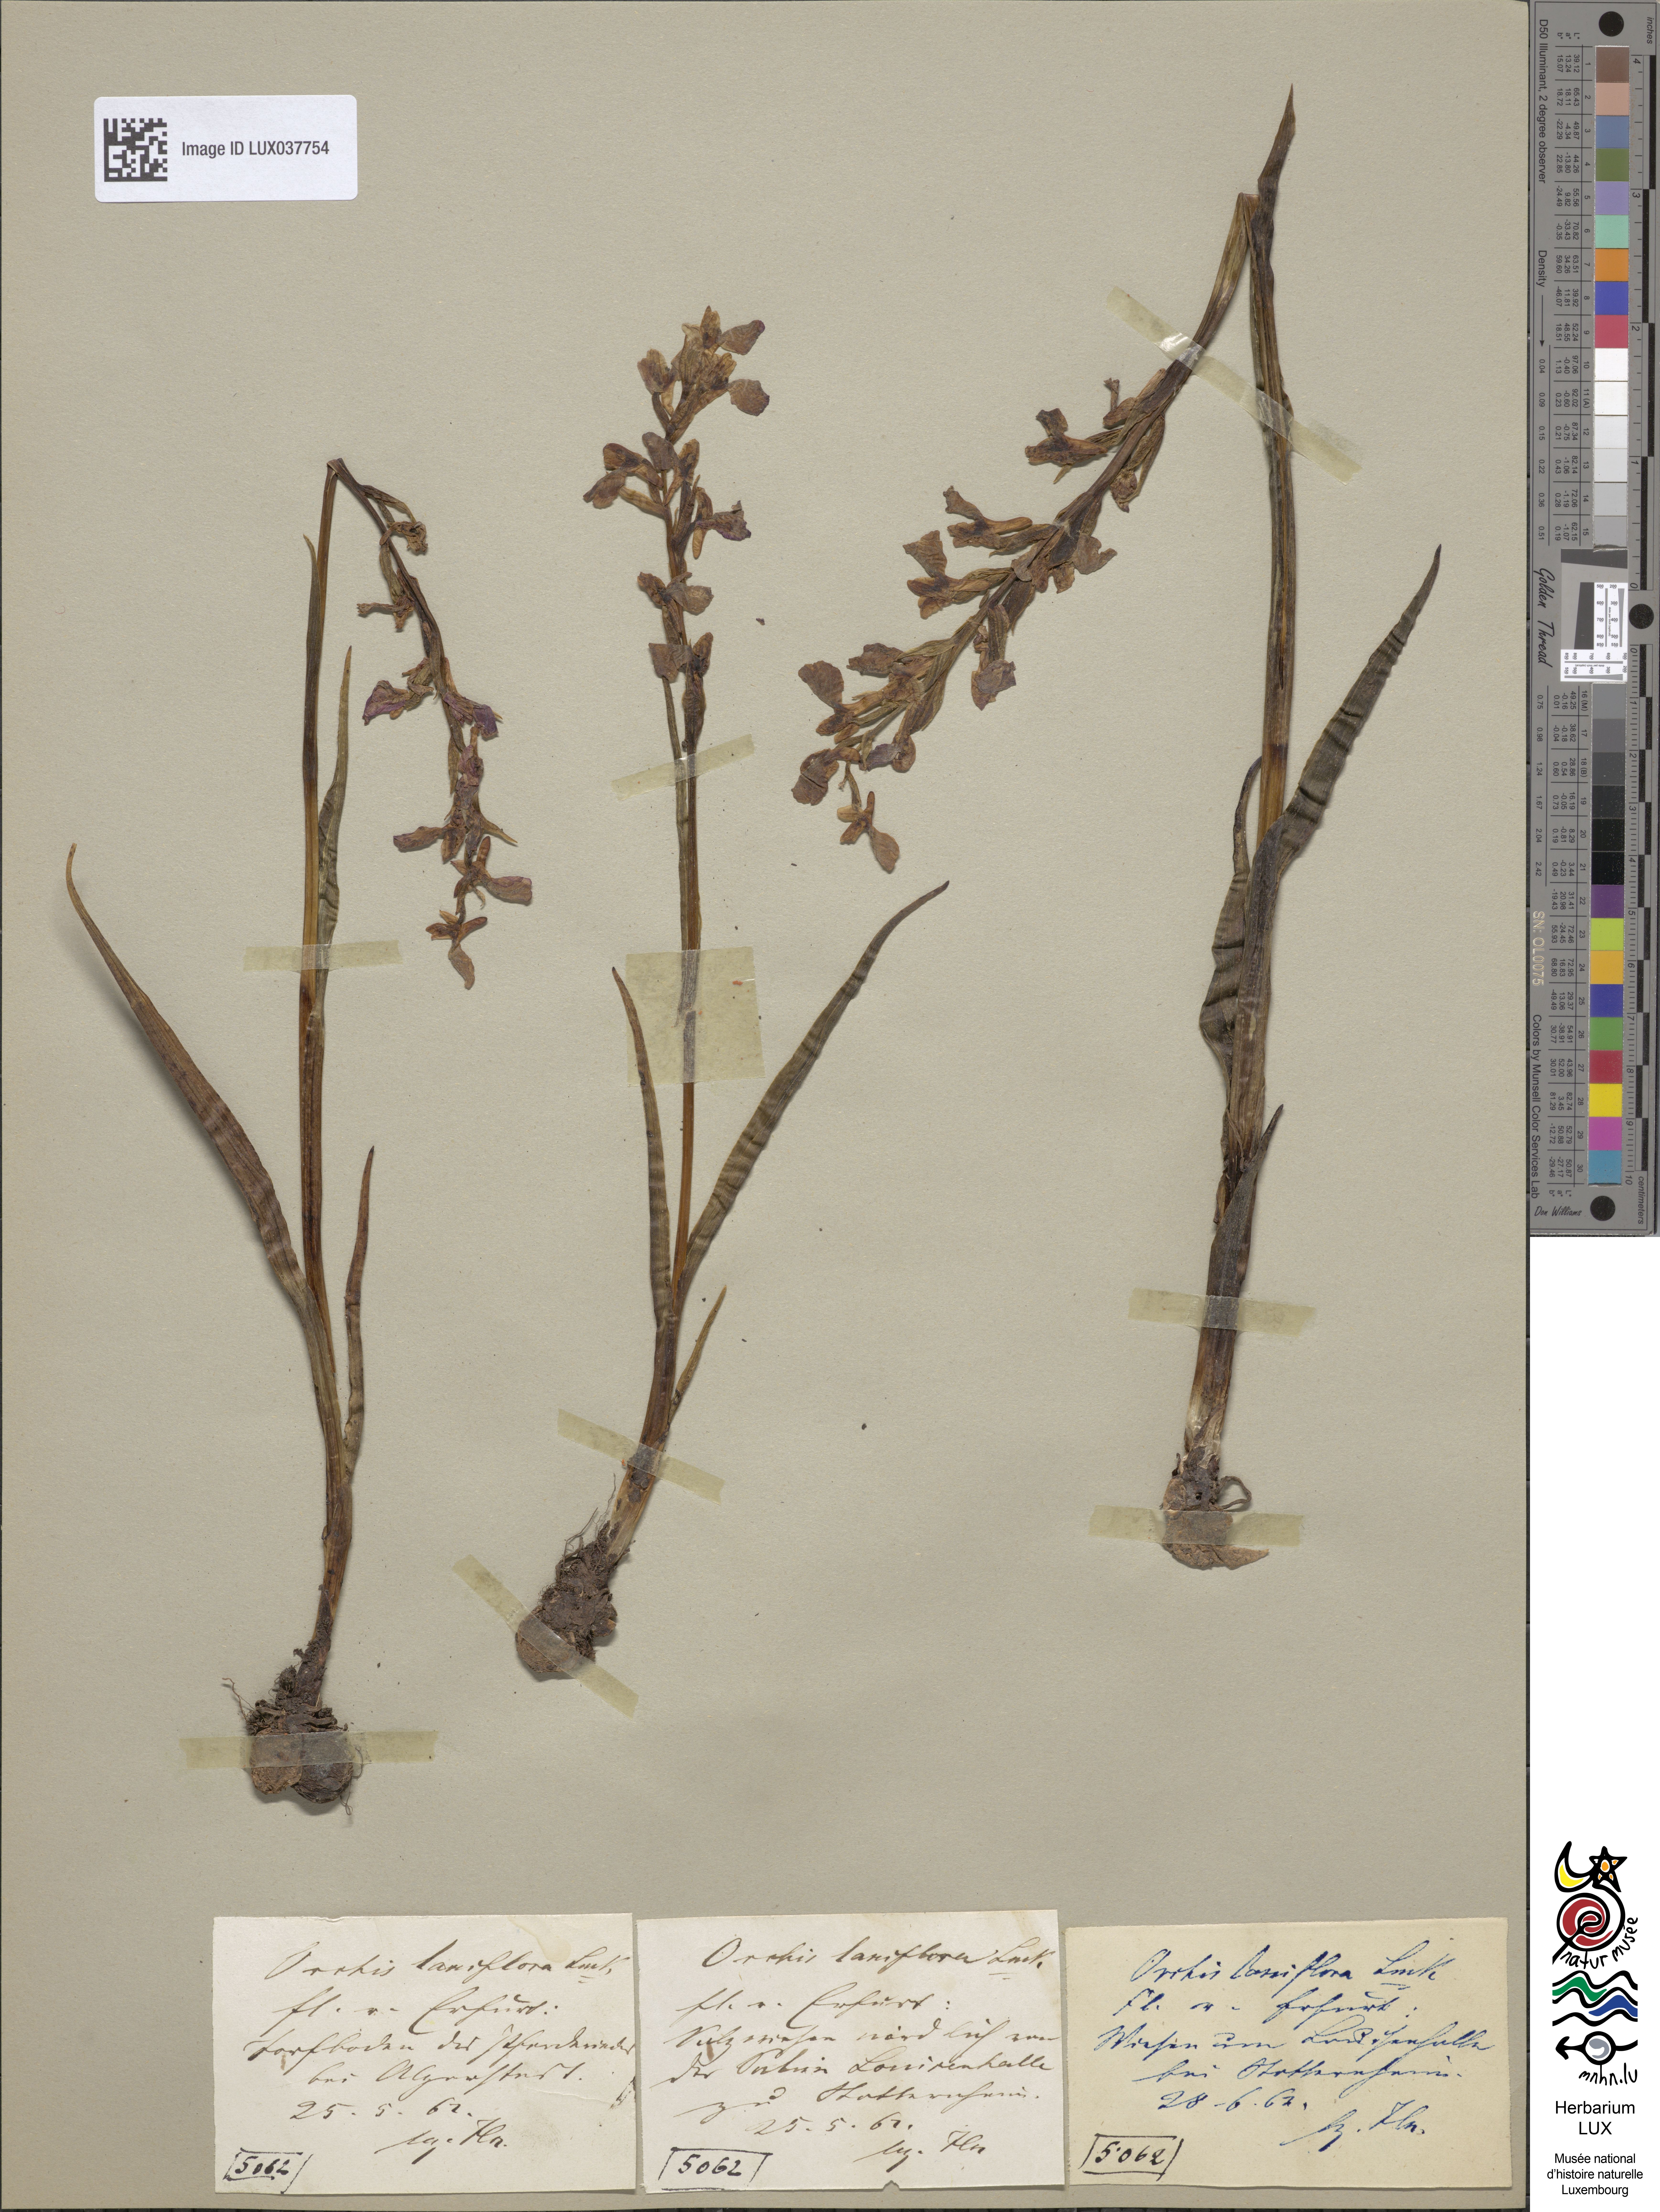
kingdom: Plantae
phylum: Tracheophyta
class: Liliopsida
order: Asparagales
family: Orchidaceae
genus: Anacamptis
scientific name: Anacamptis laxiflora
